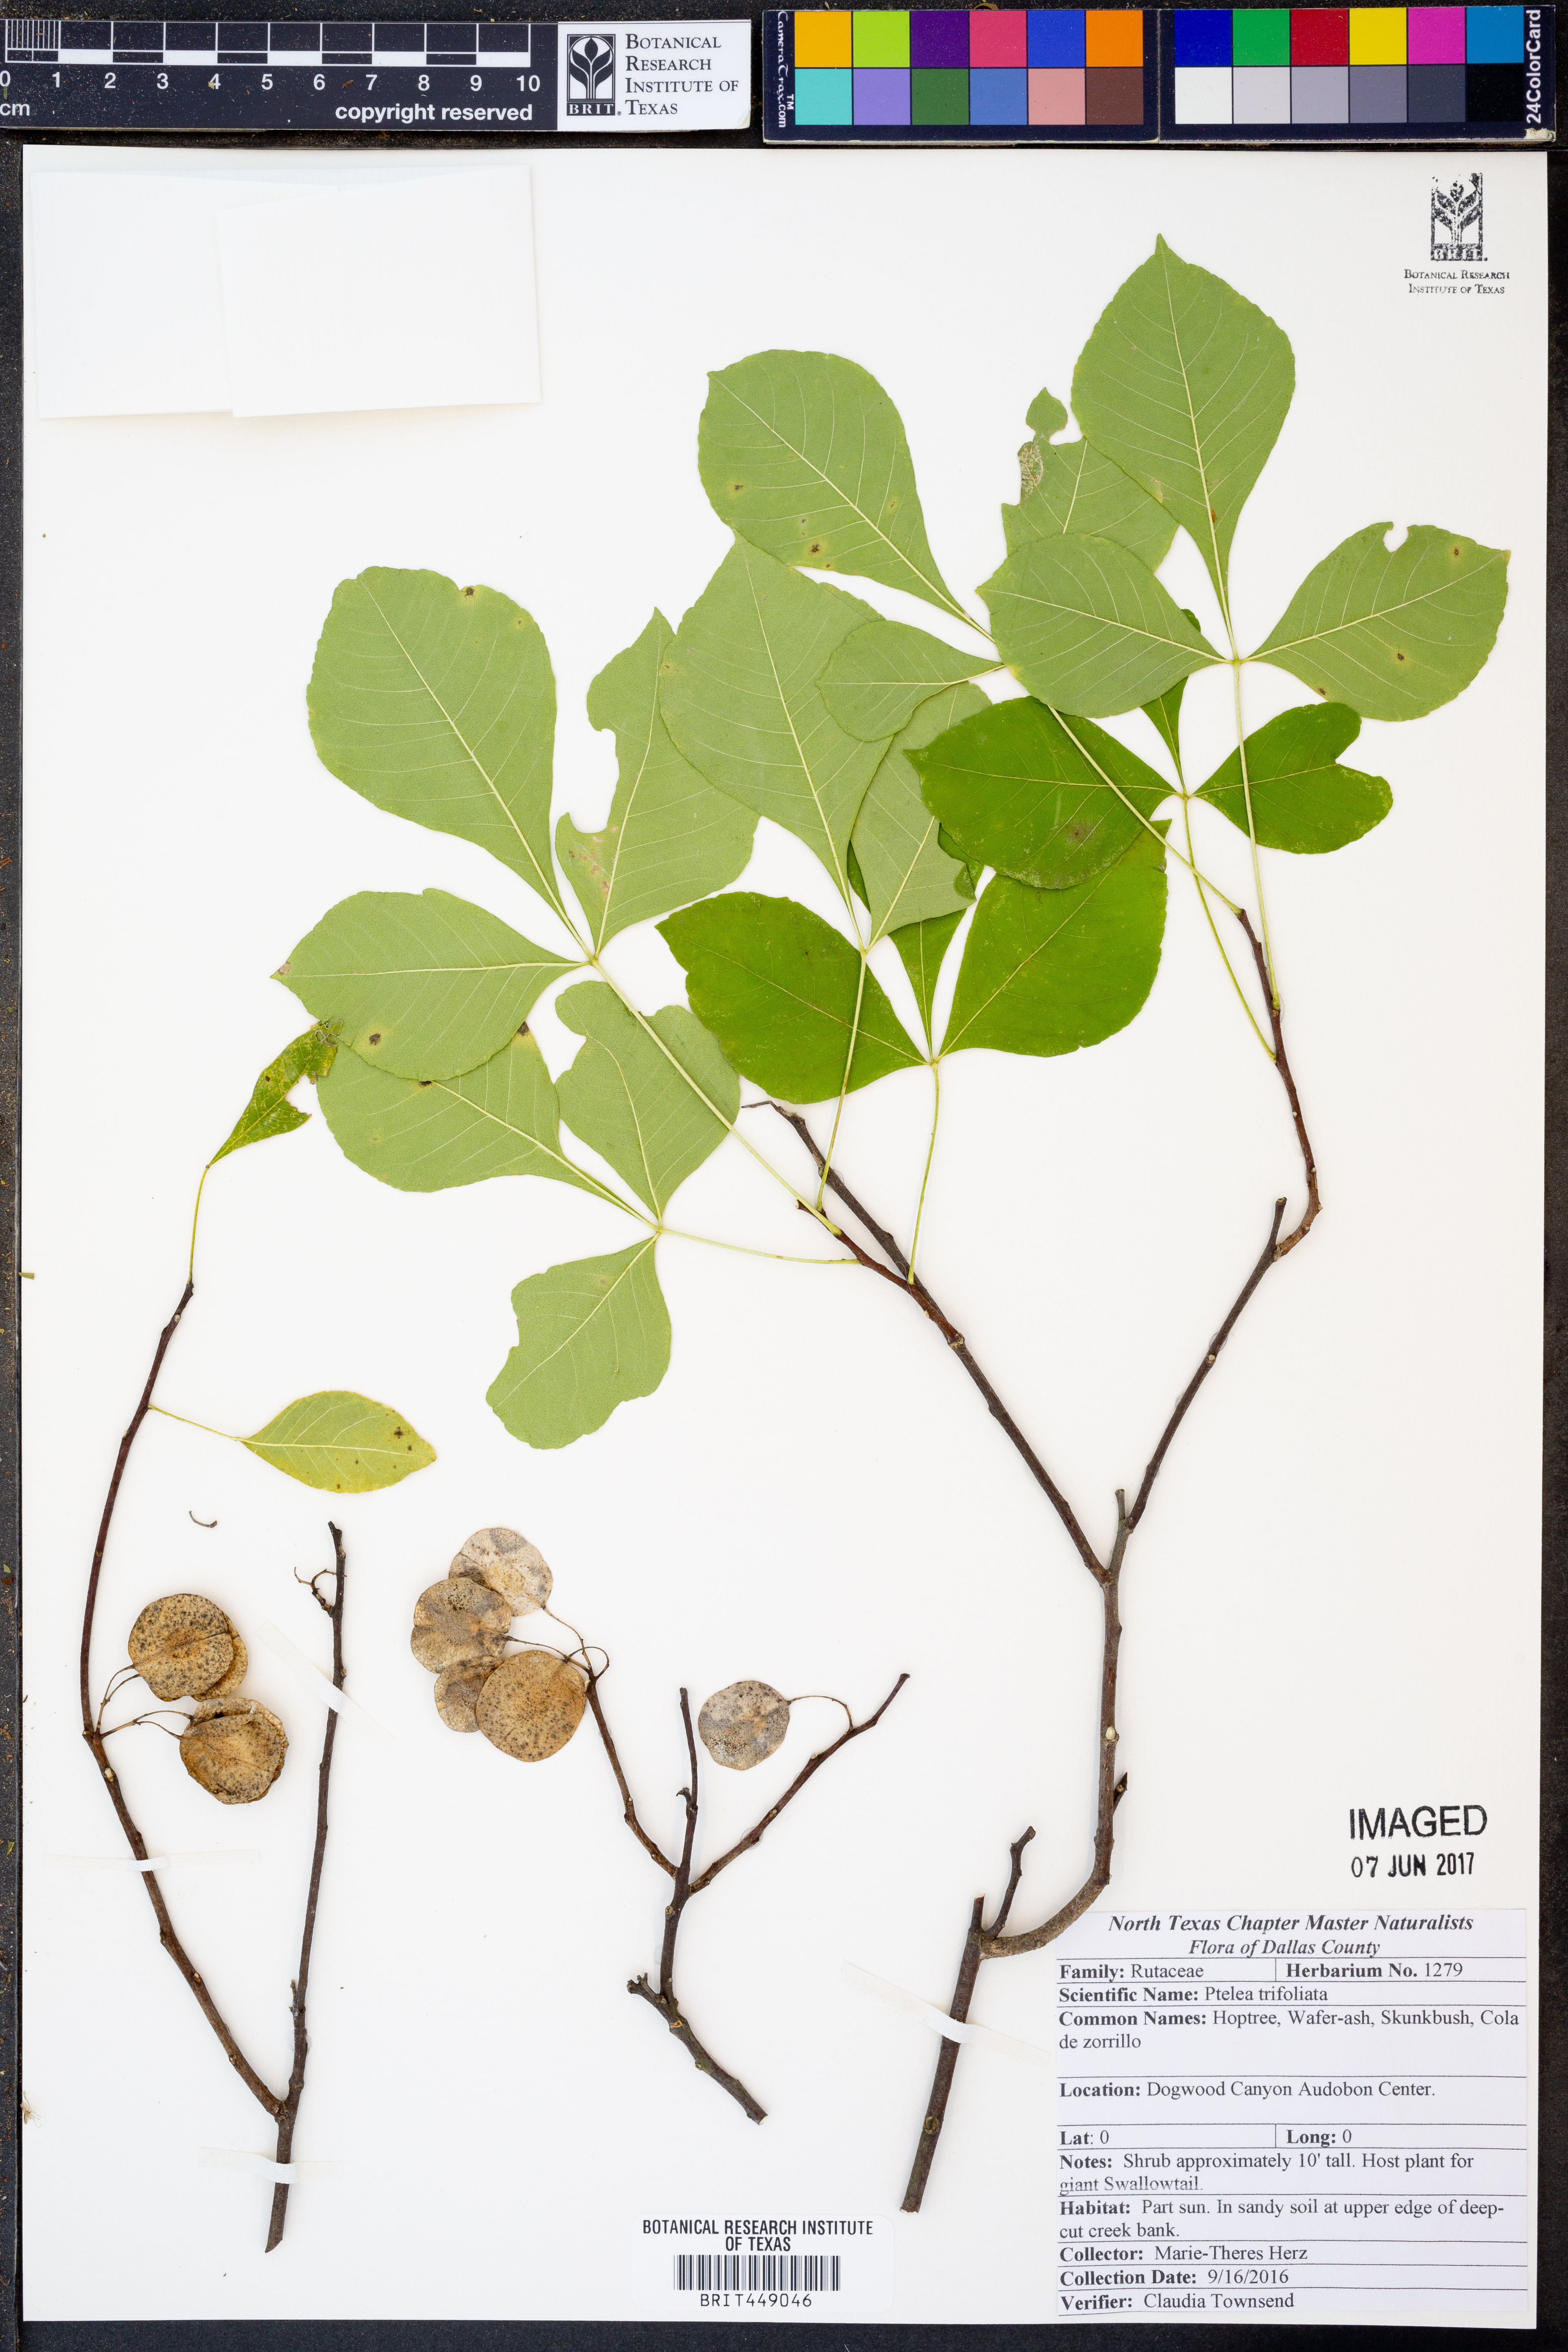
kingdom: Plantae
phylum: Tracheophyta
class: Magnoliopsida
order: Sapindales
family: Rutaceae
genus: Ptelea
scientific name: Ptelea trifoliata
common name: Common hop-tree
